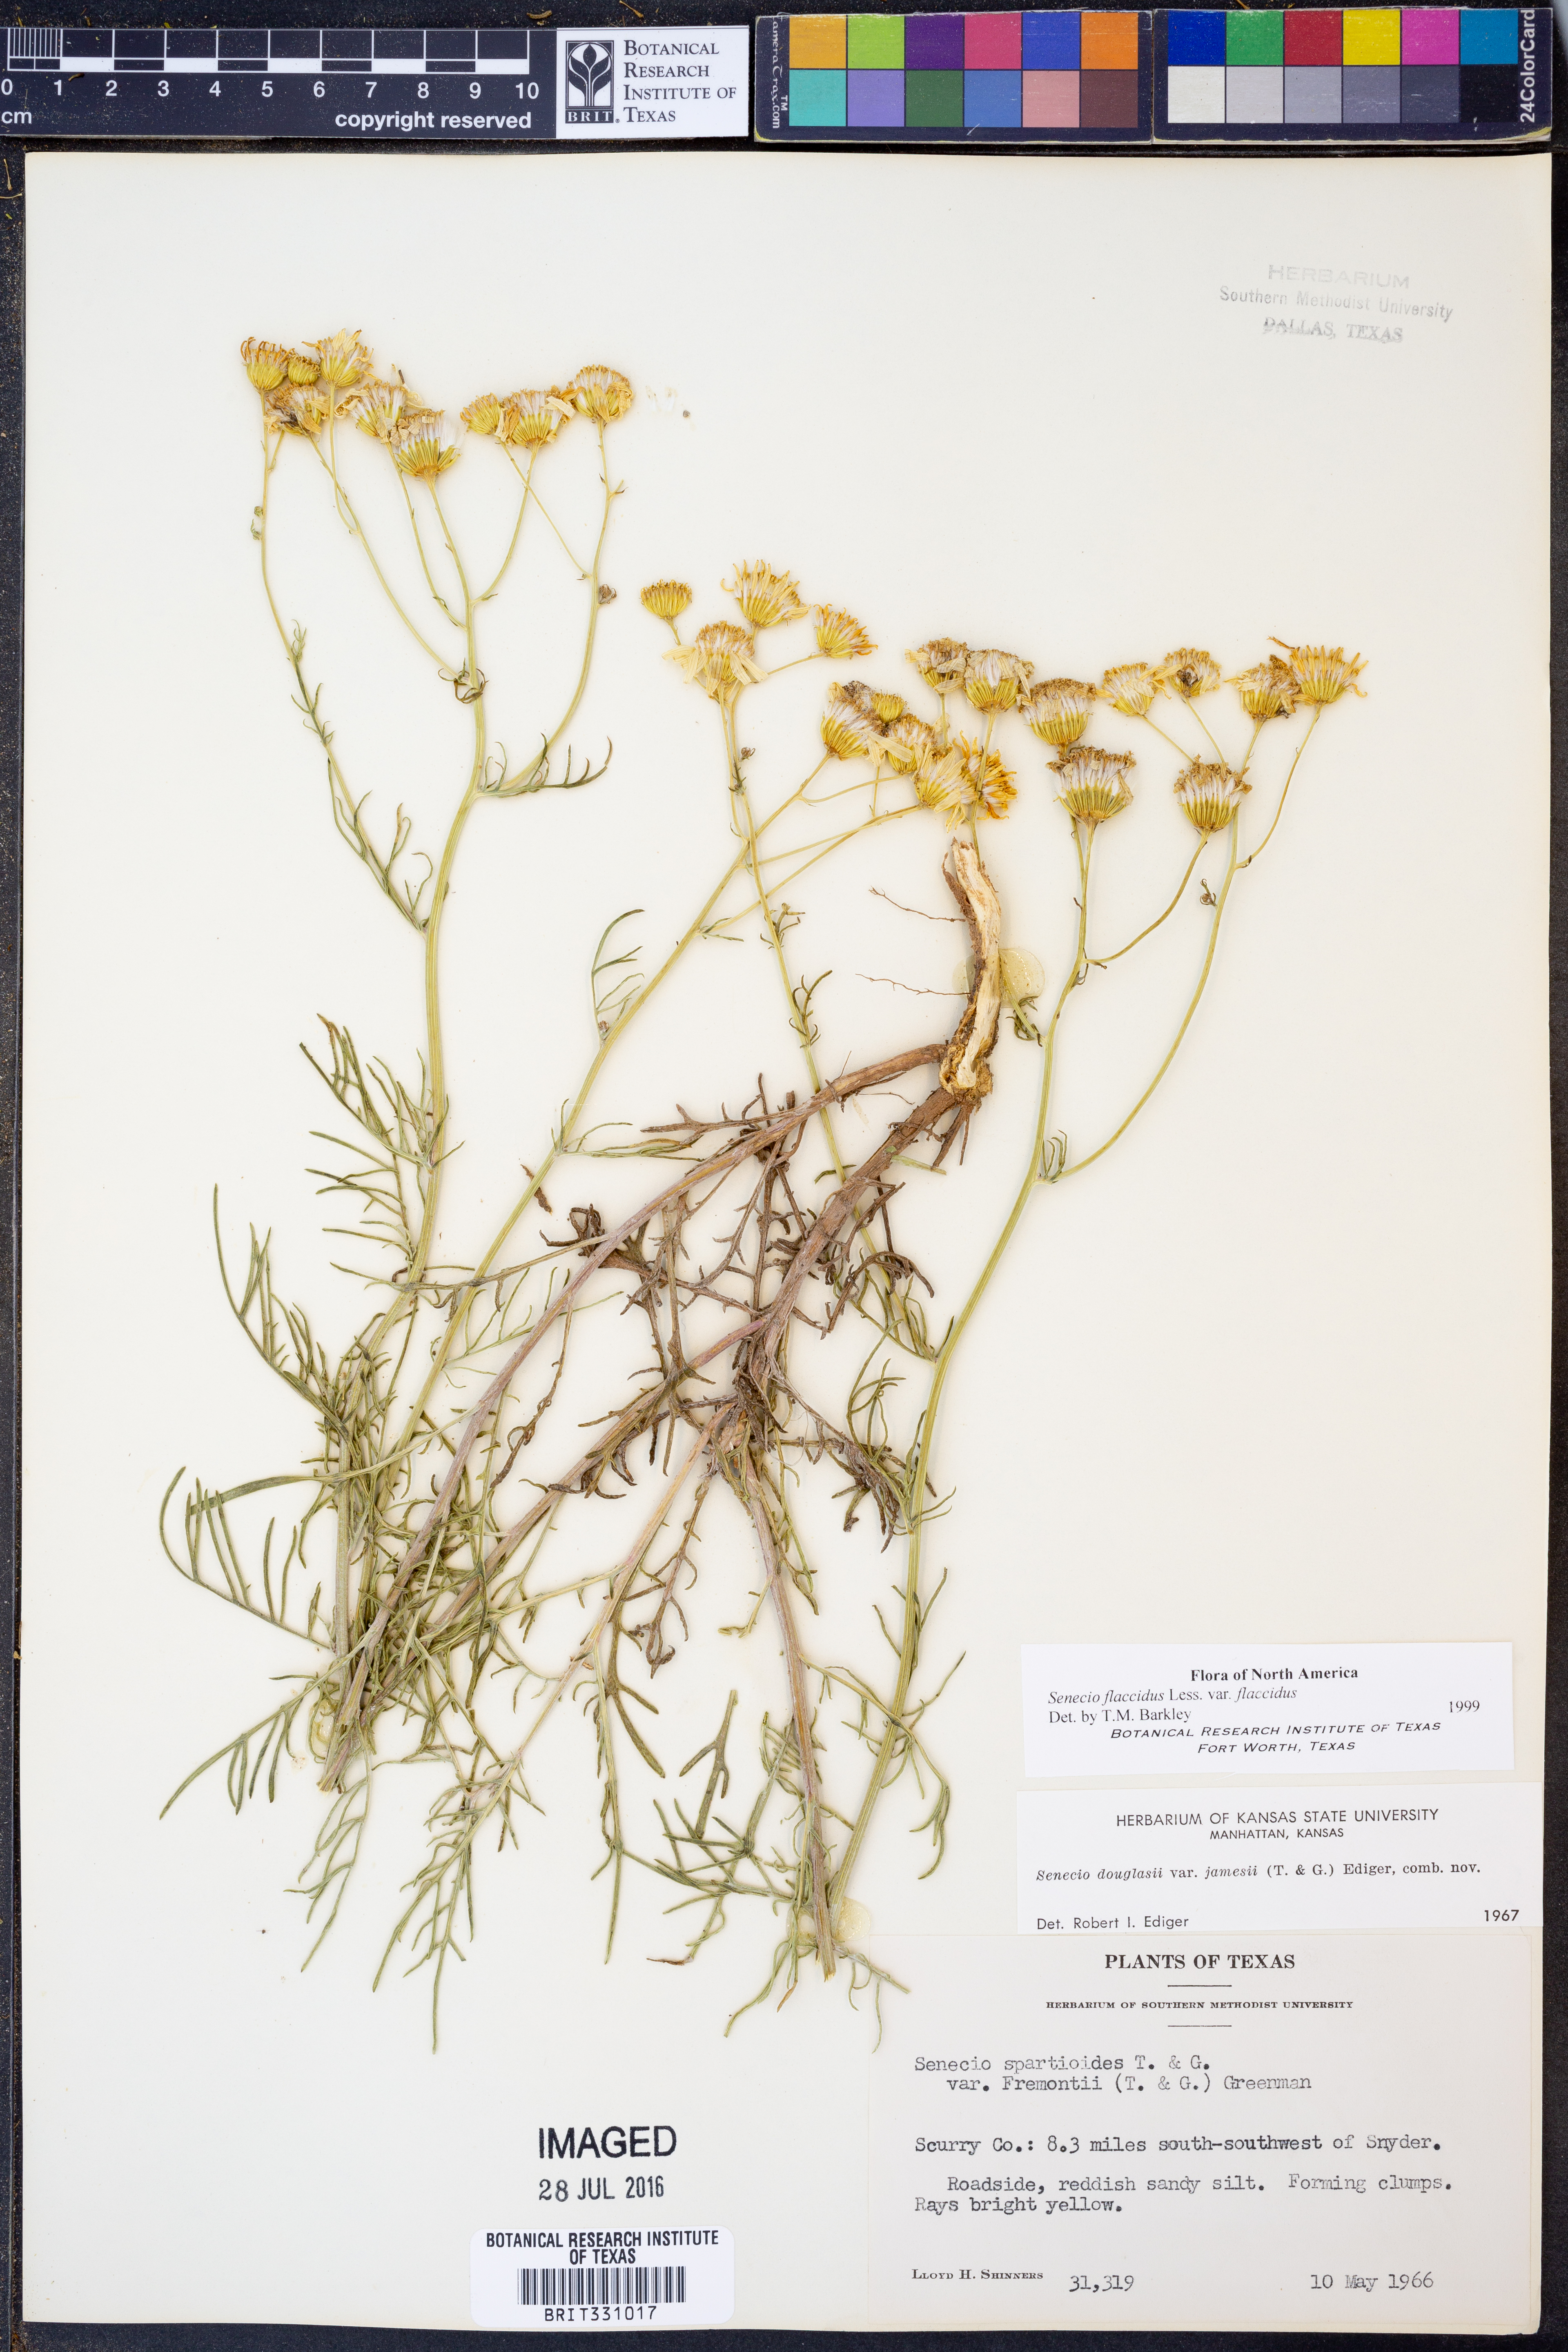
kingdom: Plantae
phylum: Tracheophyta
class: Magnoliopsida
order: Asterales
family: Asteraceae
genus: Senecio
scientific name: Senecio flaccidus
